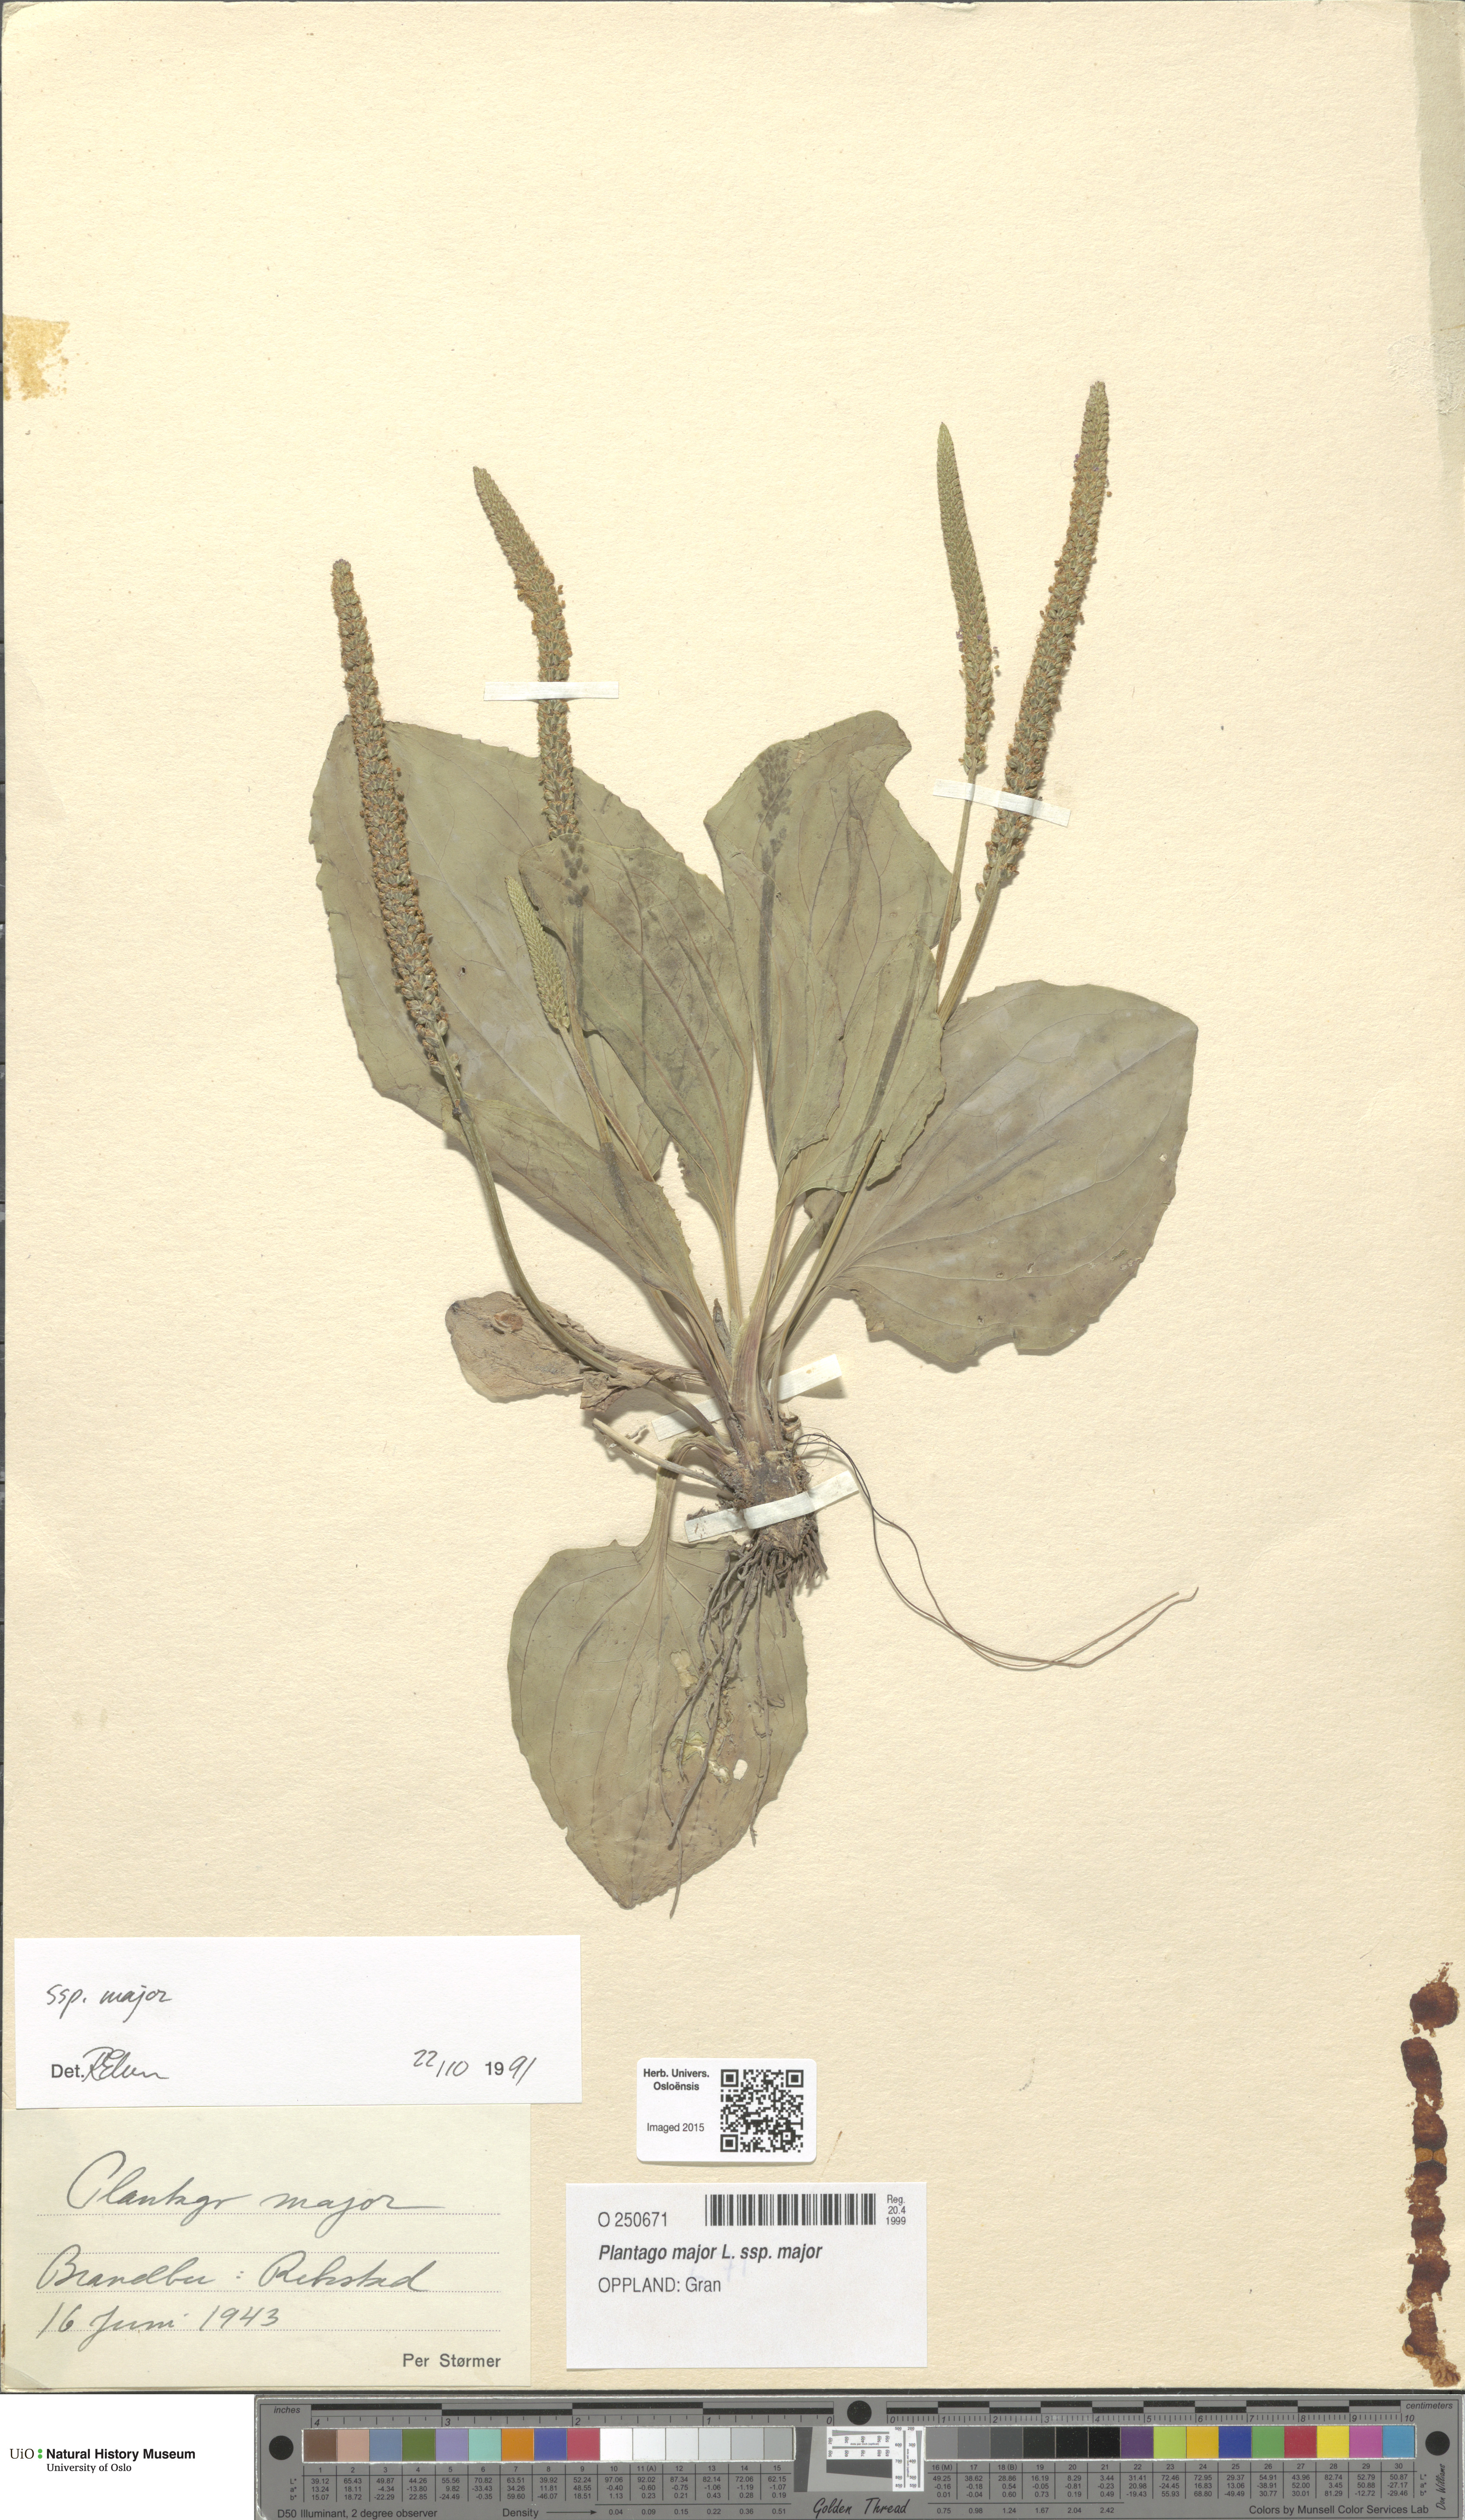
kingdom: Plantae
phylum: Tracheophyta
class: Magnoliopsida
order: Lamiales
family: Plantaginaceae
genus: Plantago
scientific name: Plantago major
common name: Common plantain
